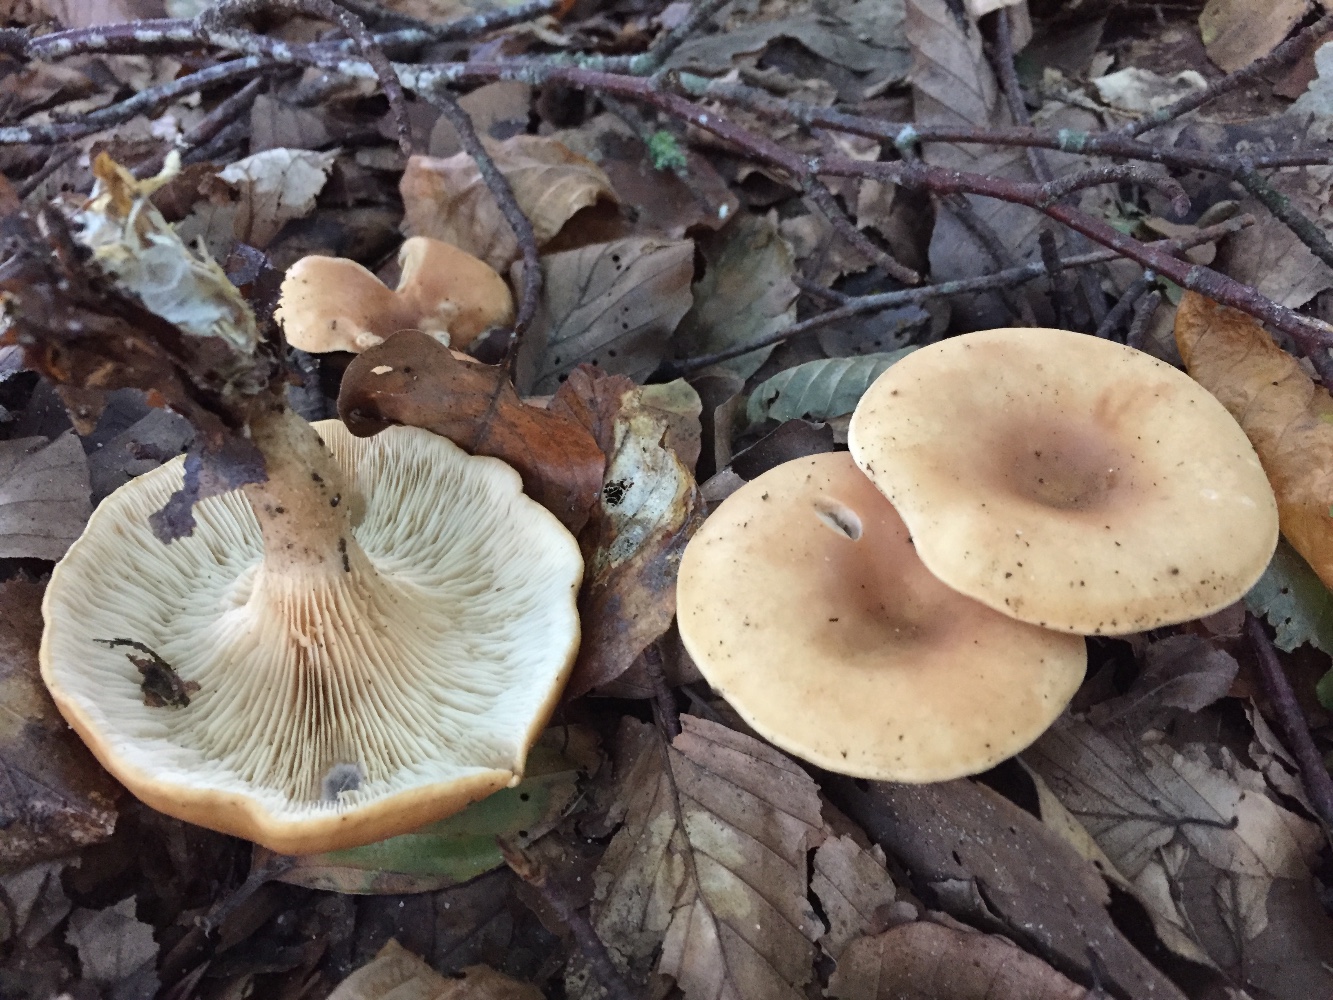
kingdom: Fungi
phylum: Basidiomycota
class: Agaricomycetes
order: Agaricales
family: Tricholomataceae
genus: Paralepista
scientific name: Paralepista flaccida
